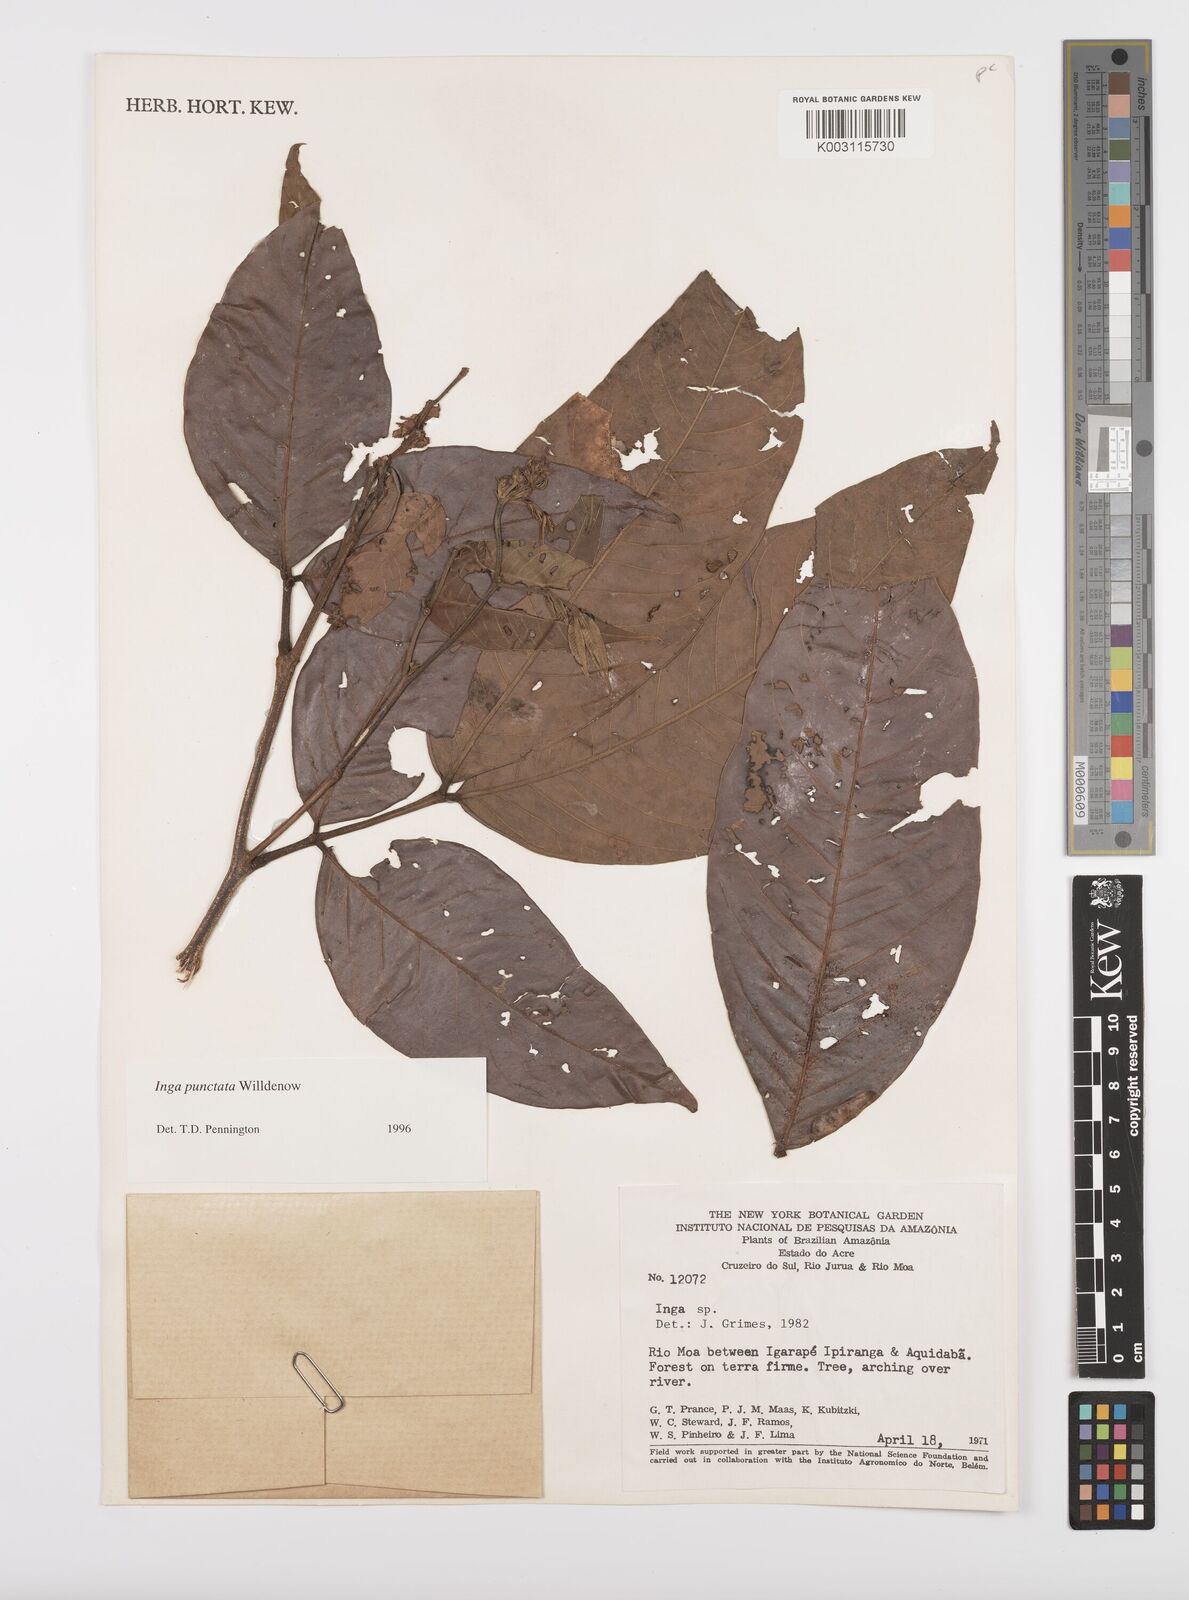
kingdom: Plantae
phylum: Tracheophyta
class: Magnoliopsida
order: Fabales
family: Fabaceae
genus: Inga
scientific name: Inga punctata
